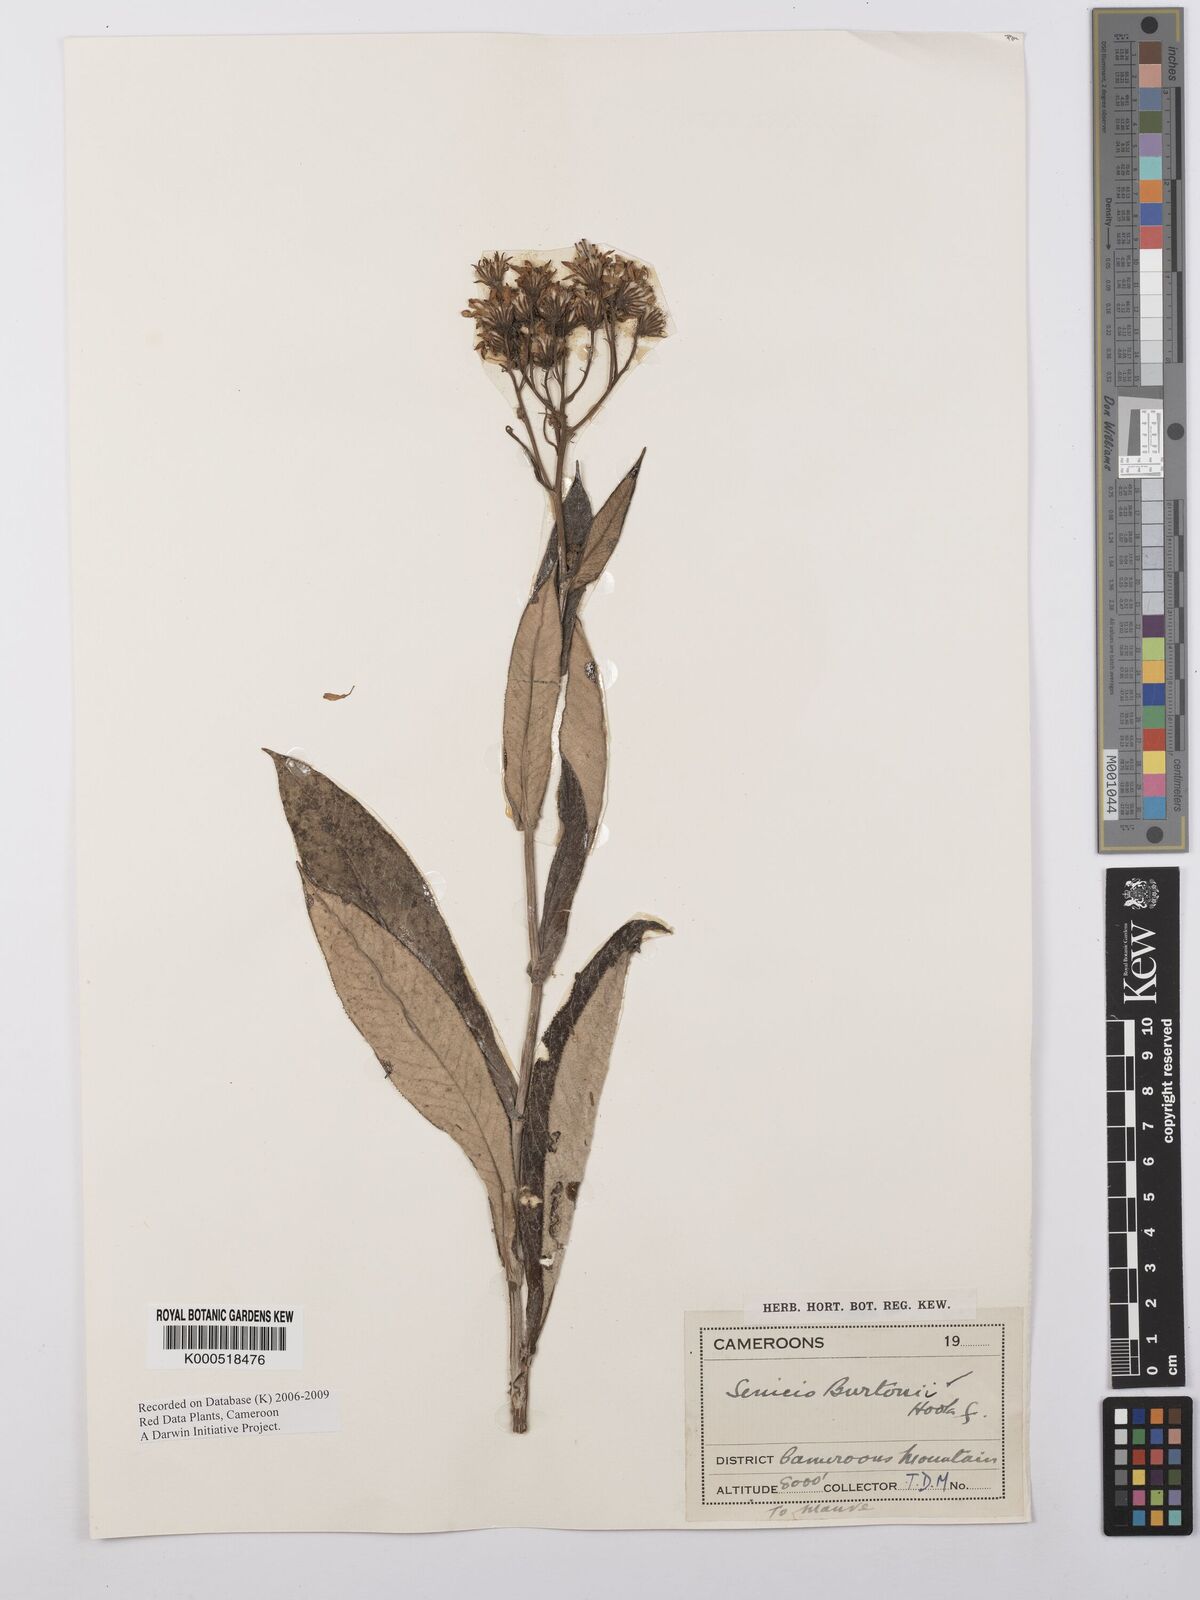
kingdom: Plantae
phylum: Tracheophyta
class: Magnoliopsida
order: Asterales
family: Asteraceae
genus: Senecio
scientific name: Senecio burtonii
